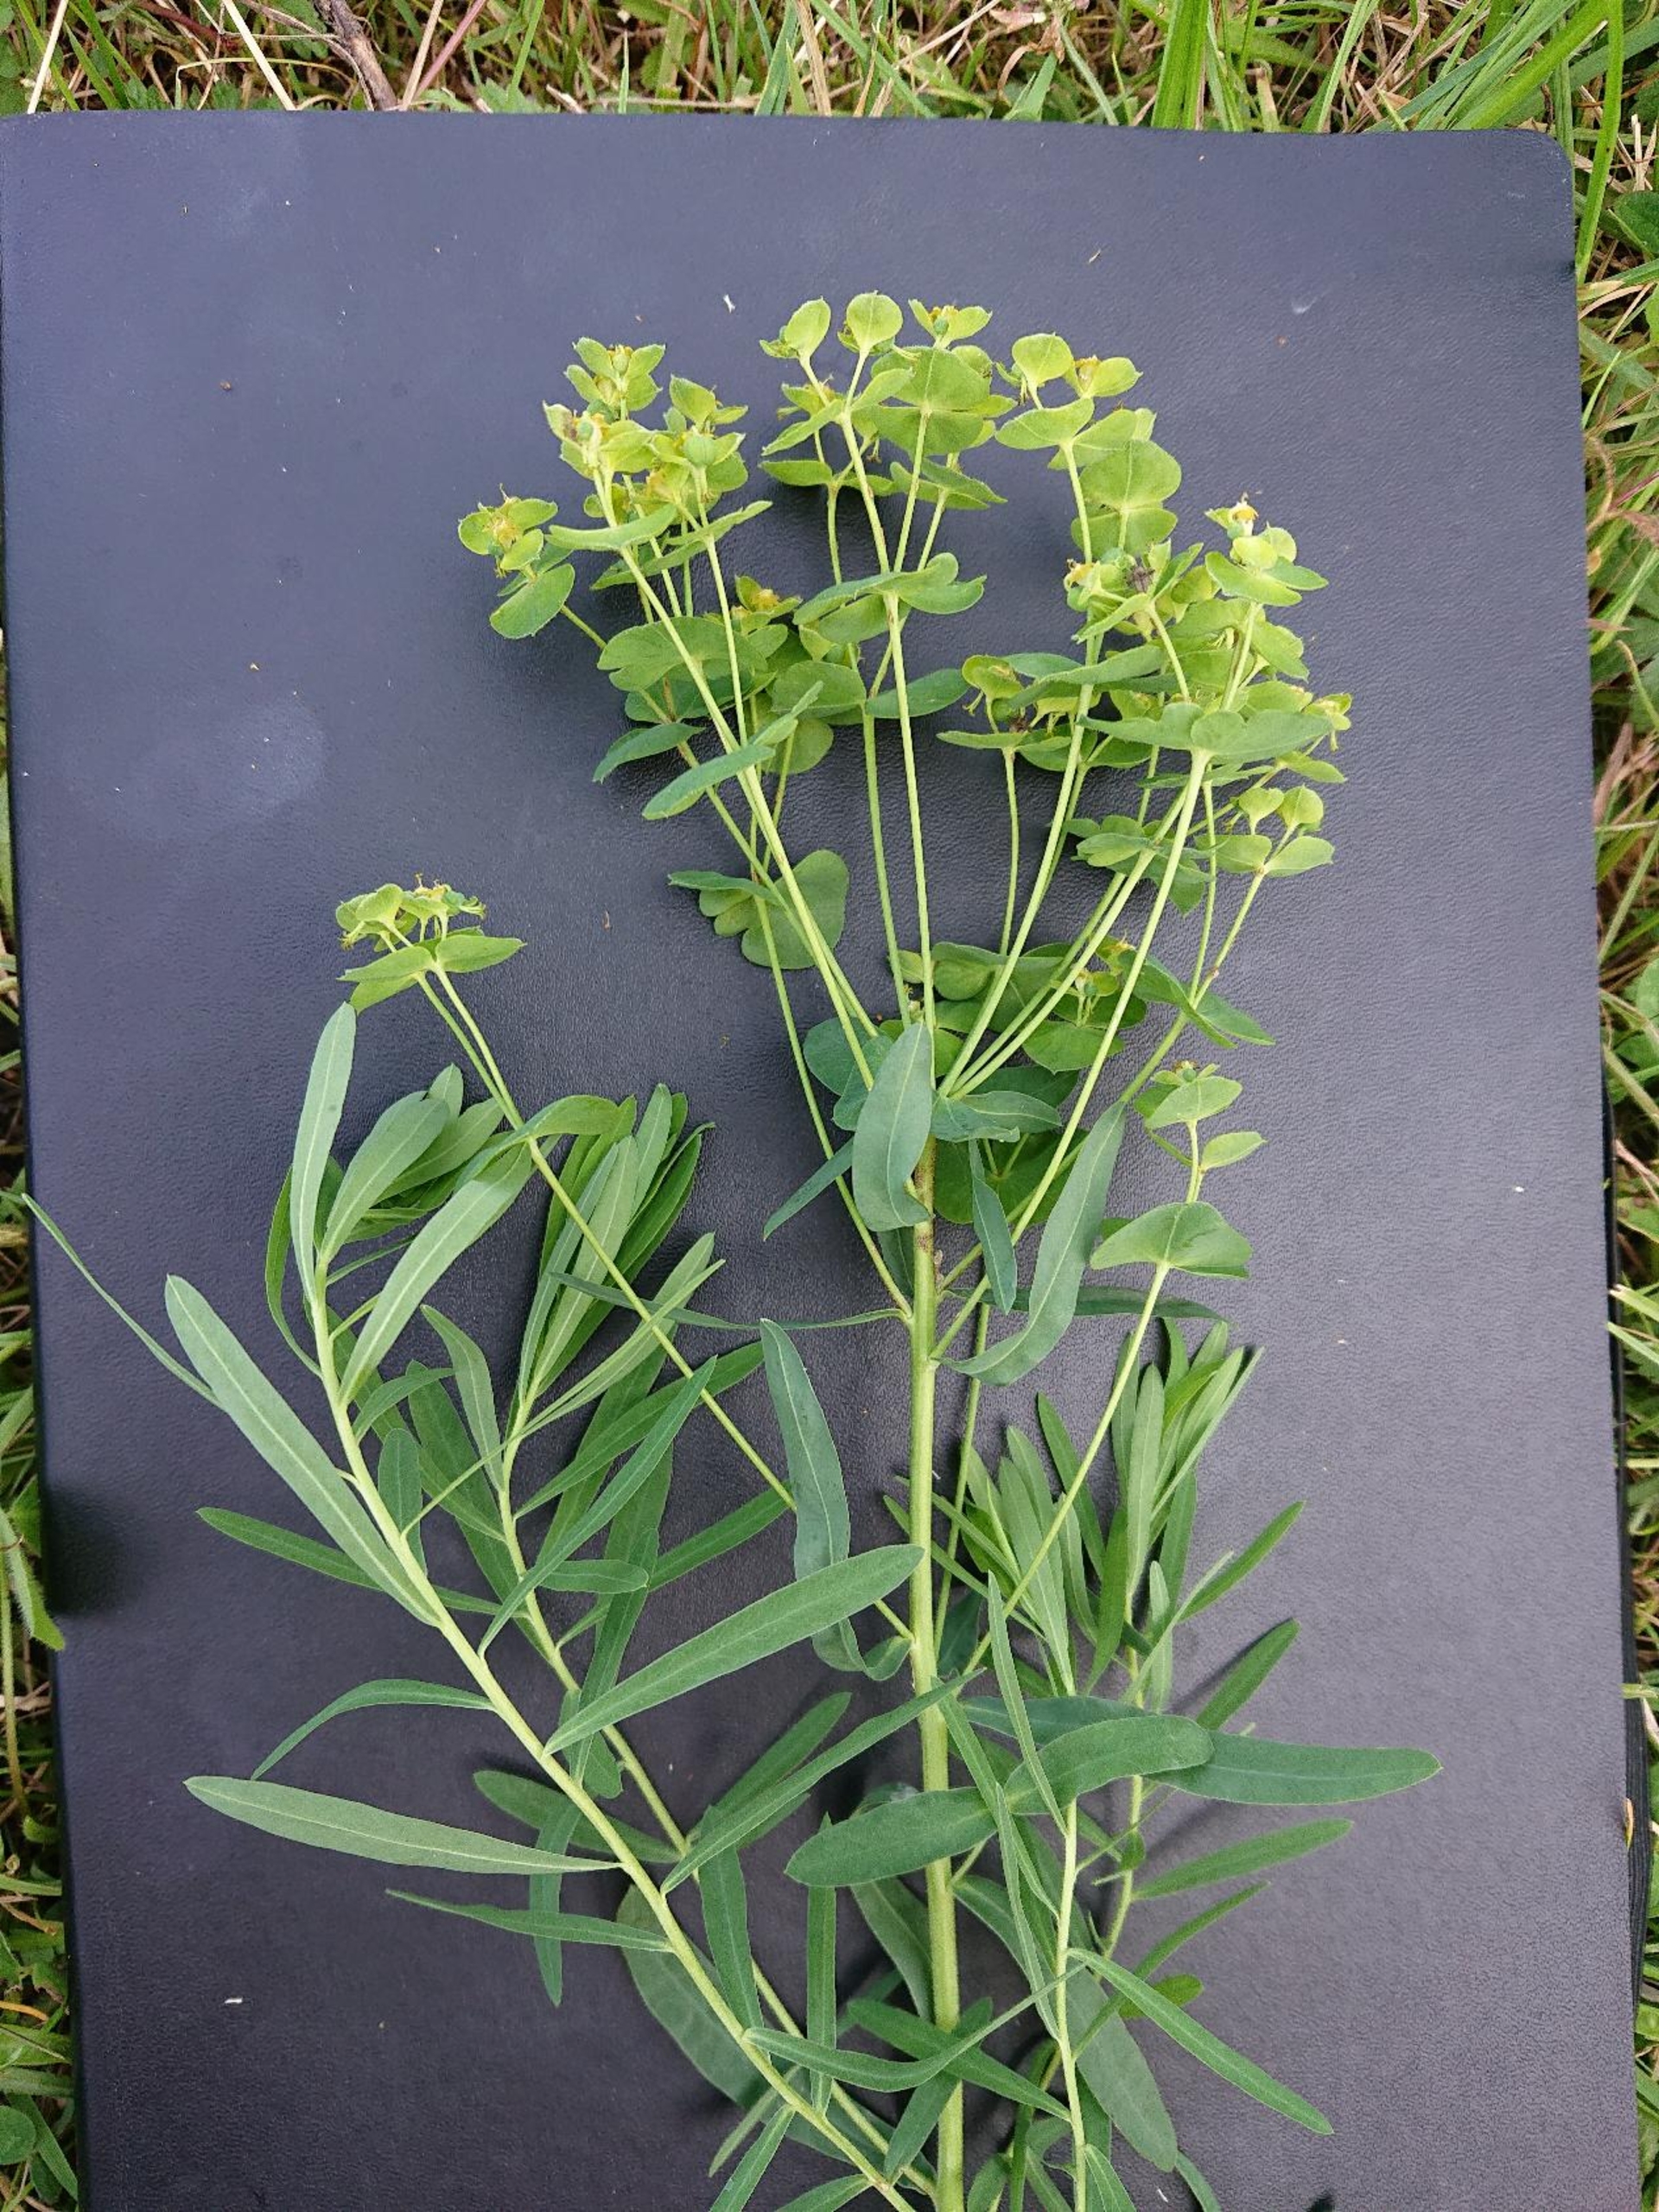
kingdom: Plantae
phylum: Tracheophyta
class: Magnoliopsida
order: Malpighiales
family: Euphorbiaceae
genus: Euphorbia
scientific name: Euphorbia esula
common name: Langbladet vortemælk
